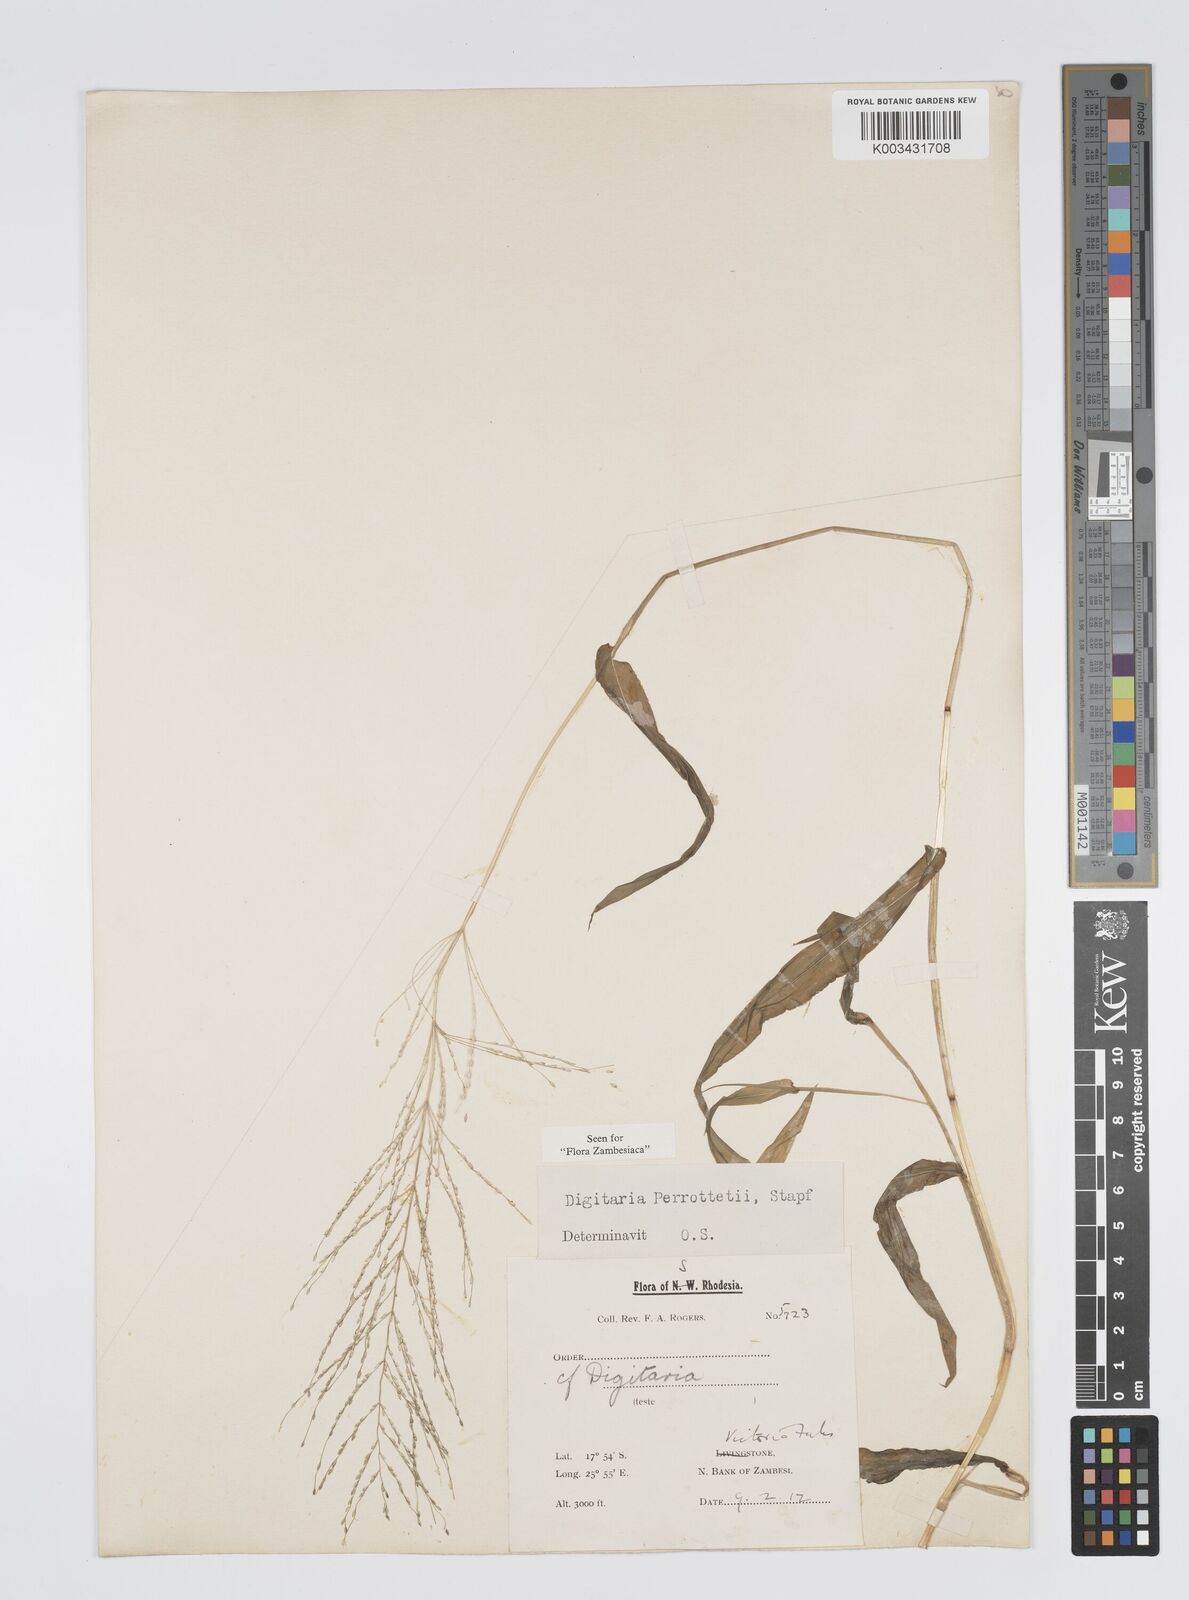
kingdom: Plantae
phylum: Tracheophyta
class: Liliopsida
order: Poales
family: Poaceae
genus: Digitaria
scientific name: Digitaria perrottetii
